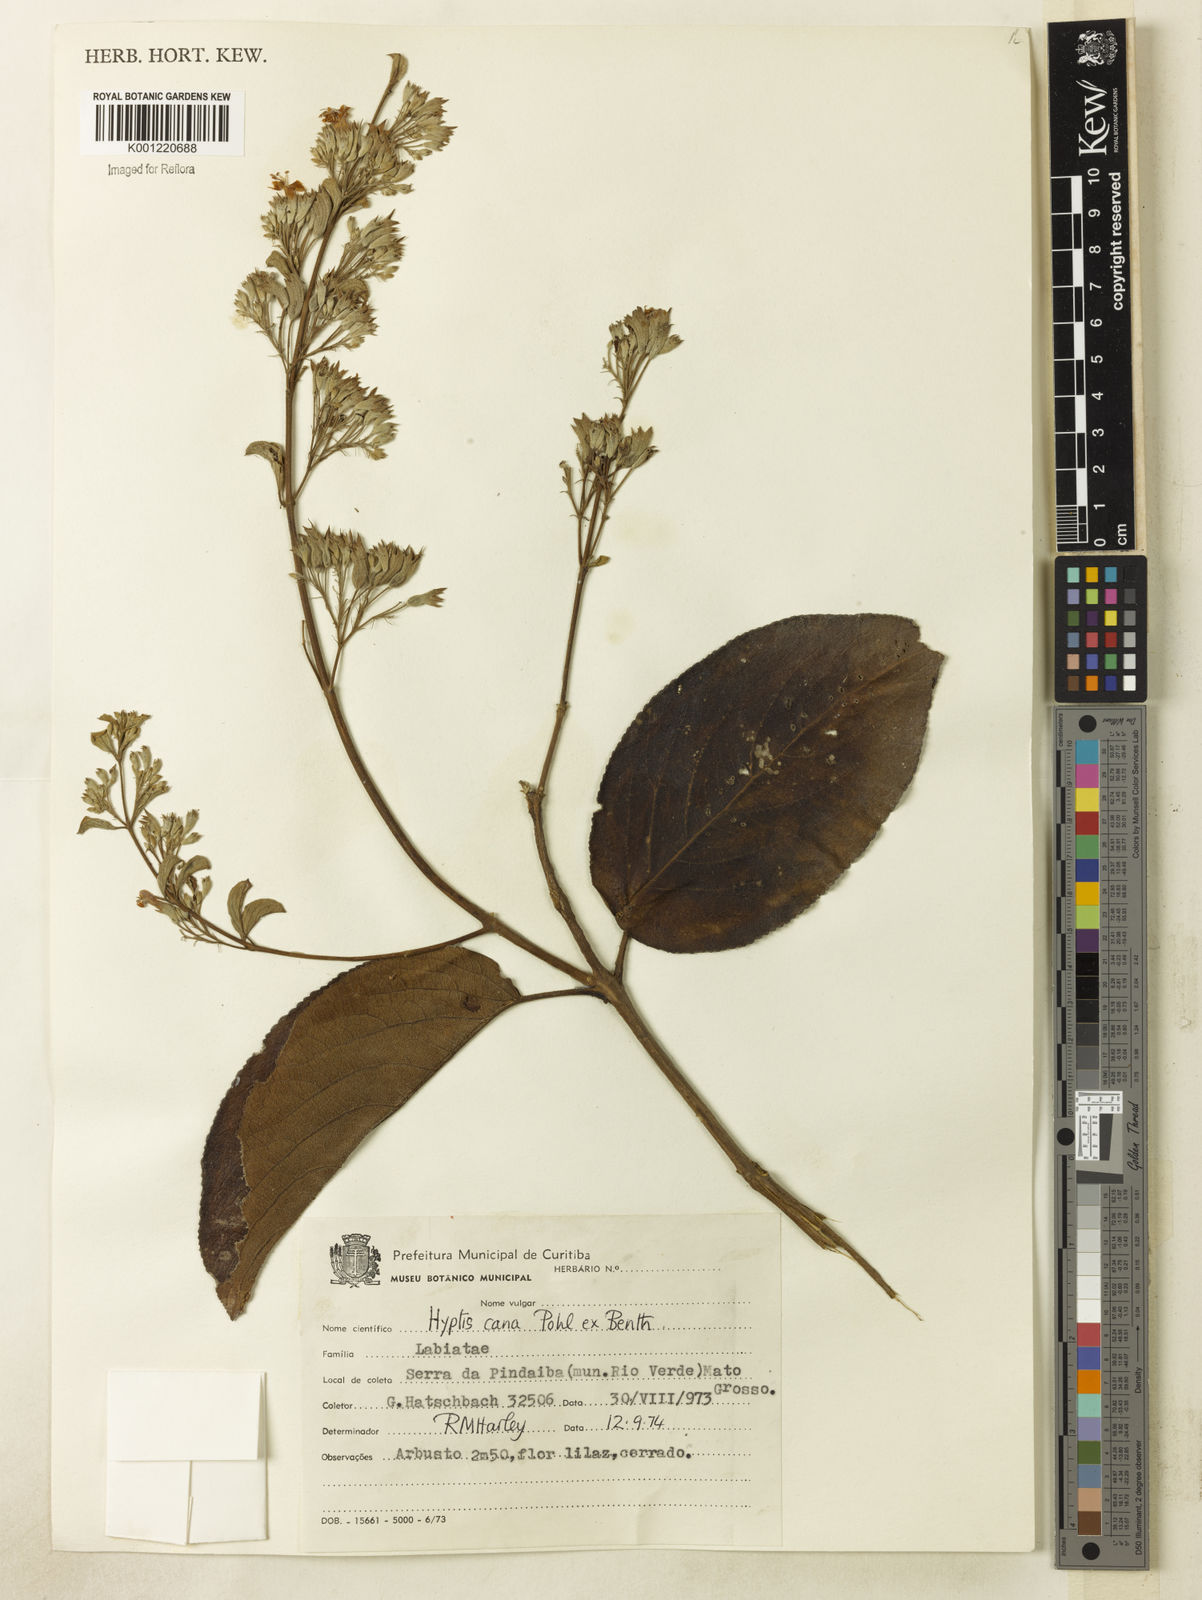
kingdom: Plantae
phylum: Tracheophyta
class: Magnoliopsida
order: Lamiales
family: Lamiaceae
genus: Hyptidendron
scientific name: Hyptidendron canum
